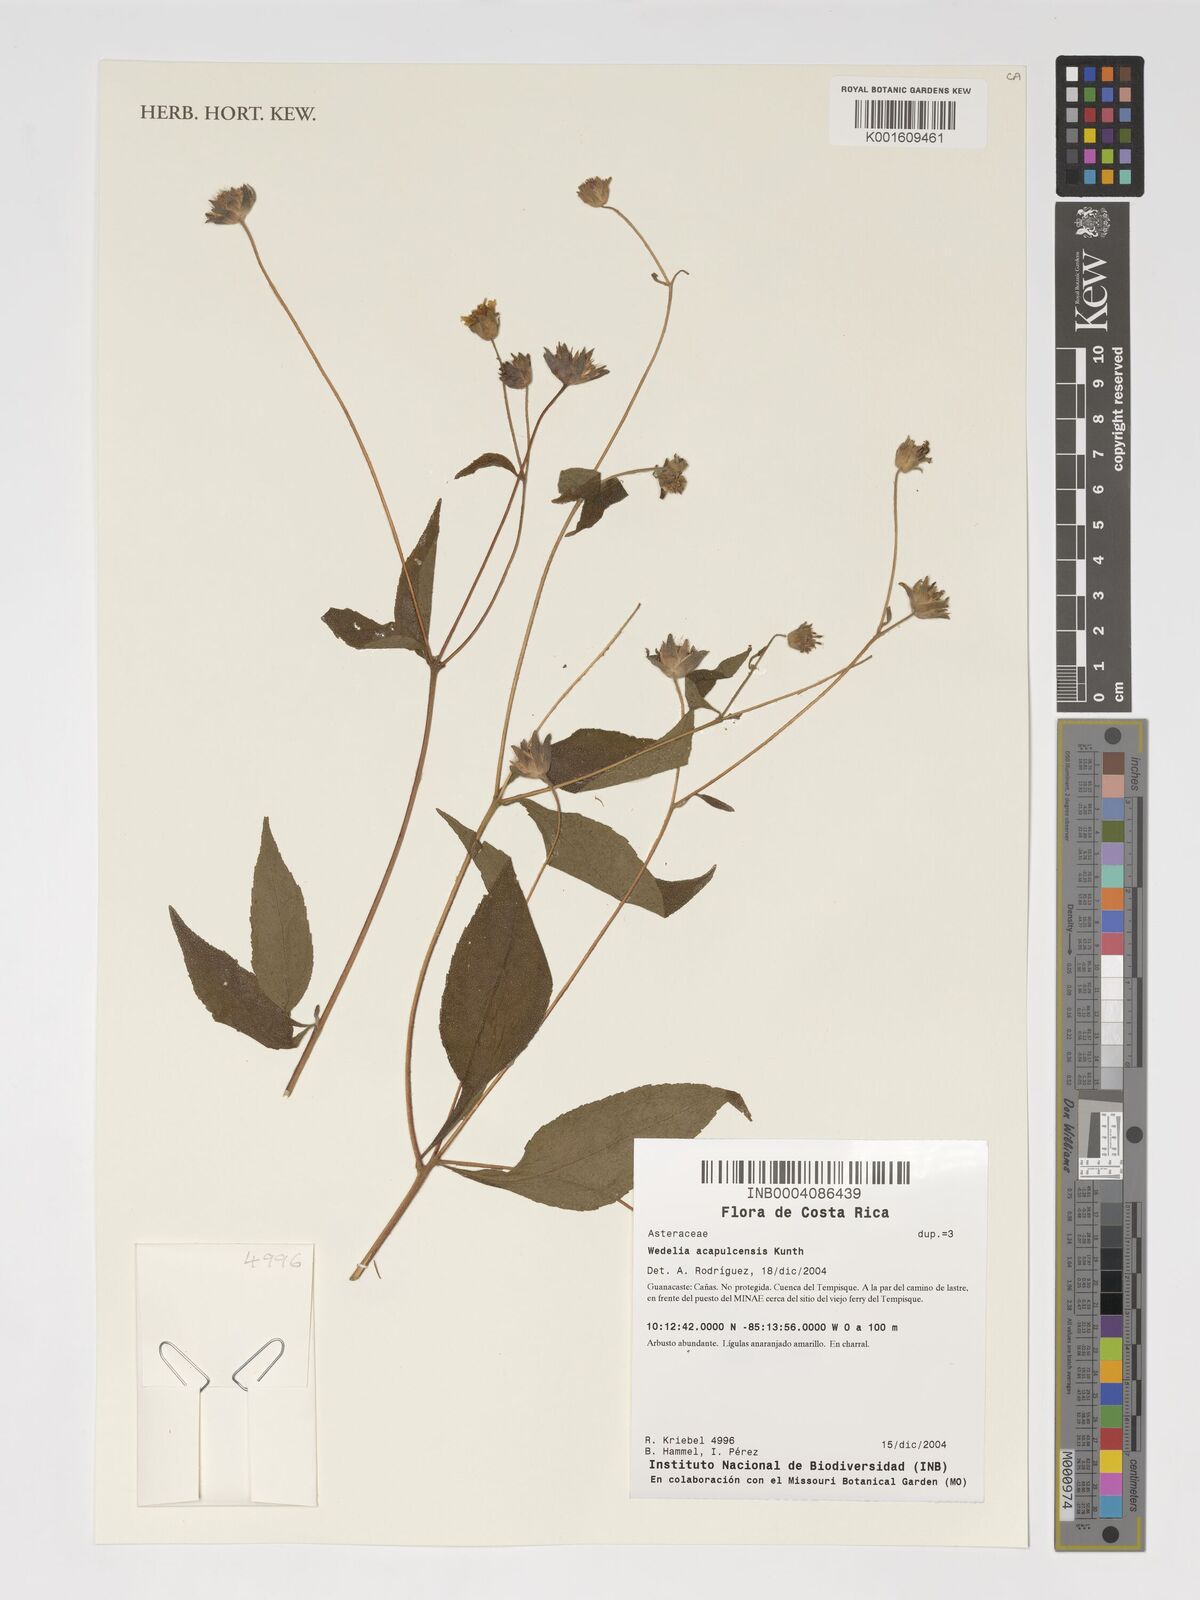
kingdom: Plantae
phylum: Tracheophyta
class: Magnoliopsida
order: Asterales
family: Asteraceae
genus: Wedelia
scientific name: Wedelia acapulcensis
